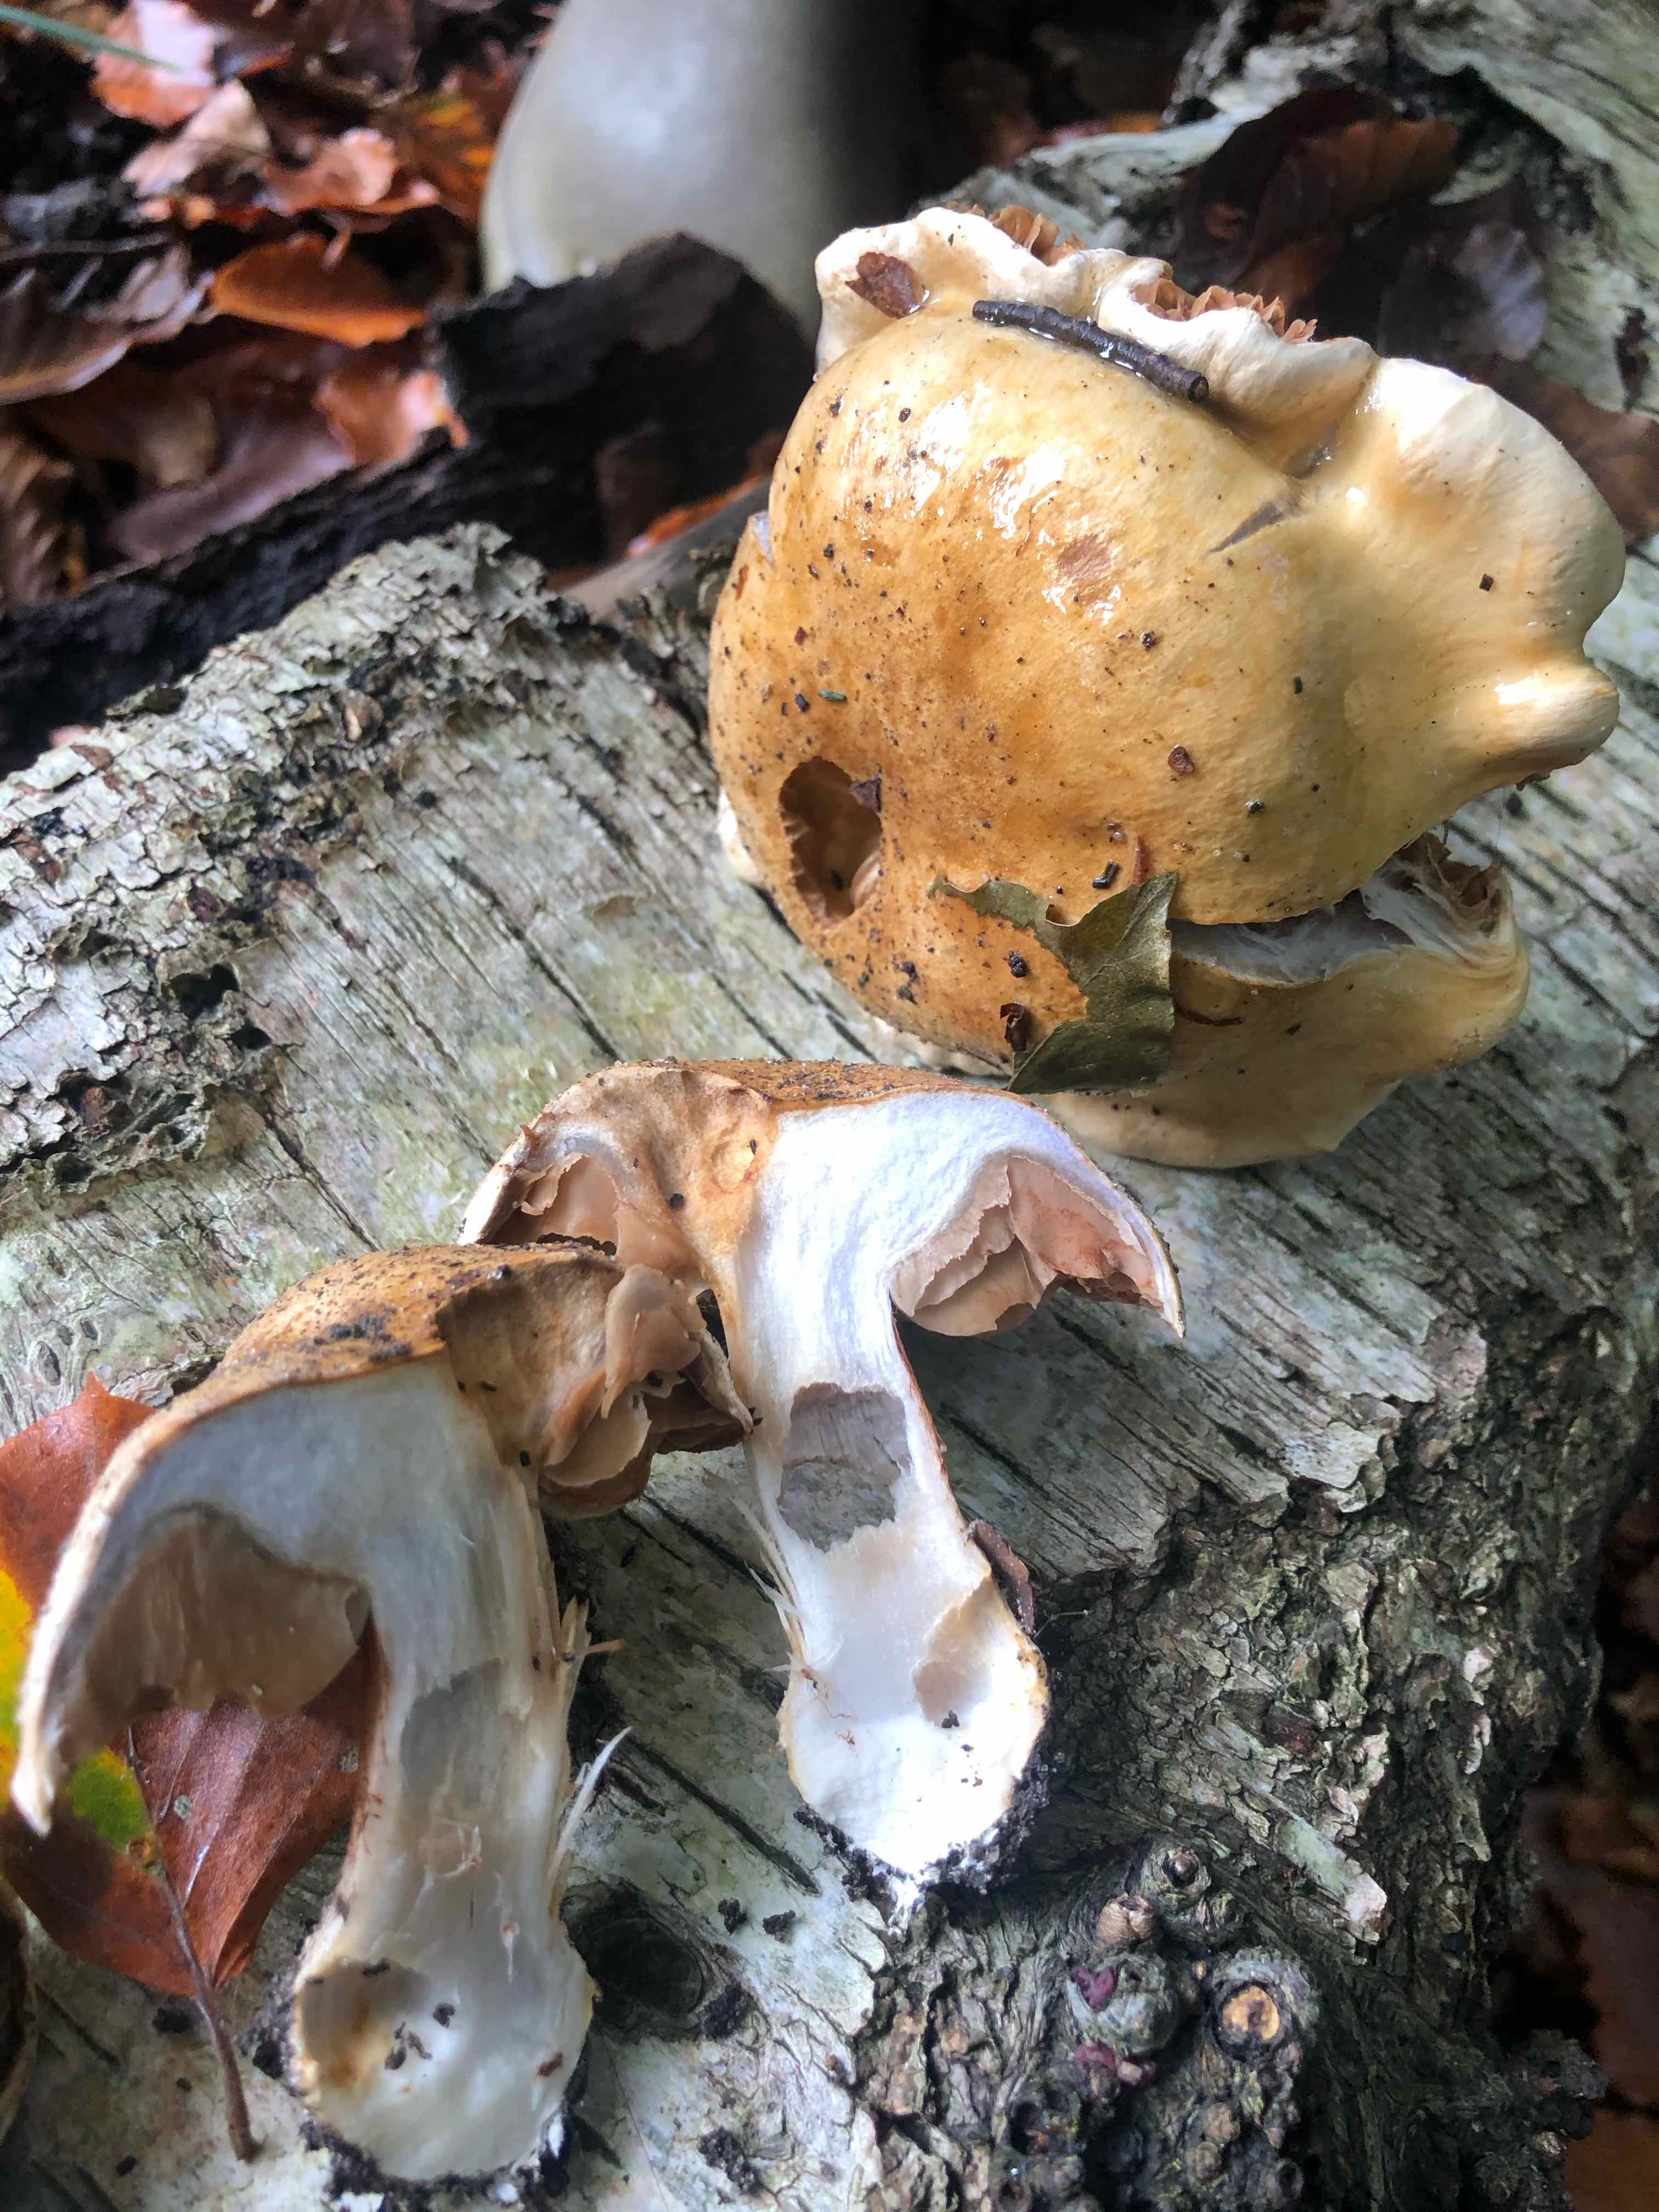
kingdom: Fungi
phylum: Basidiomycota
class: Agaricomycetes
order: Agaricales
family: Cortinariaceae
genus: Cortinarius
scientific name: Cortinarius anserinus
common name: bøge-slørhat
